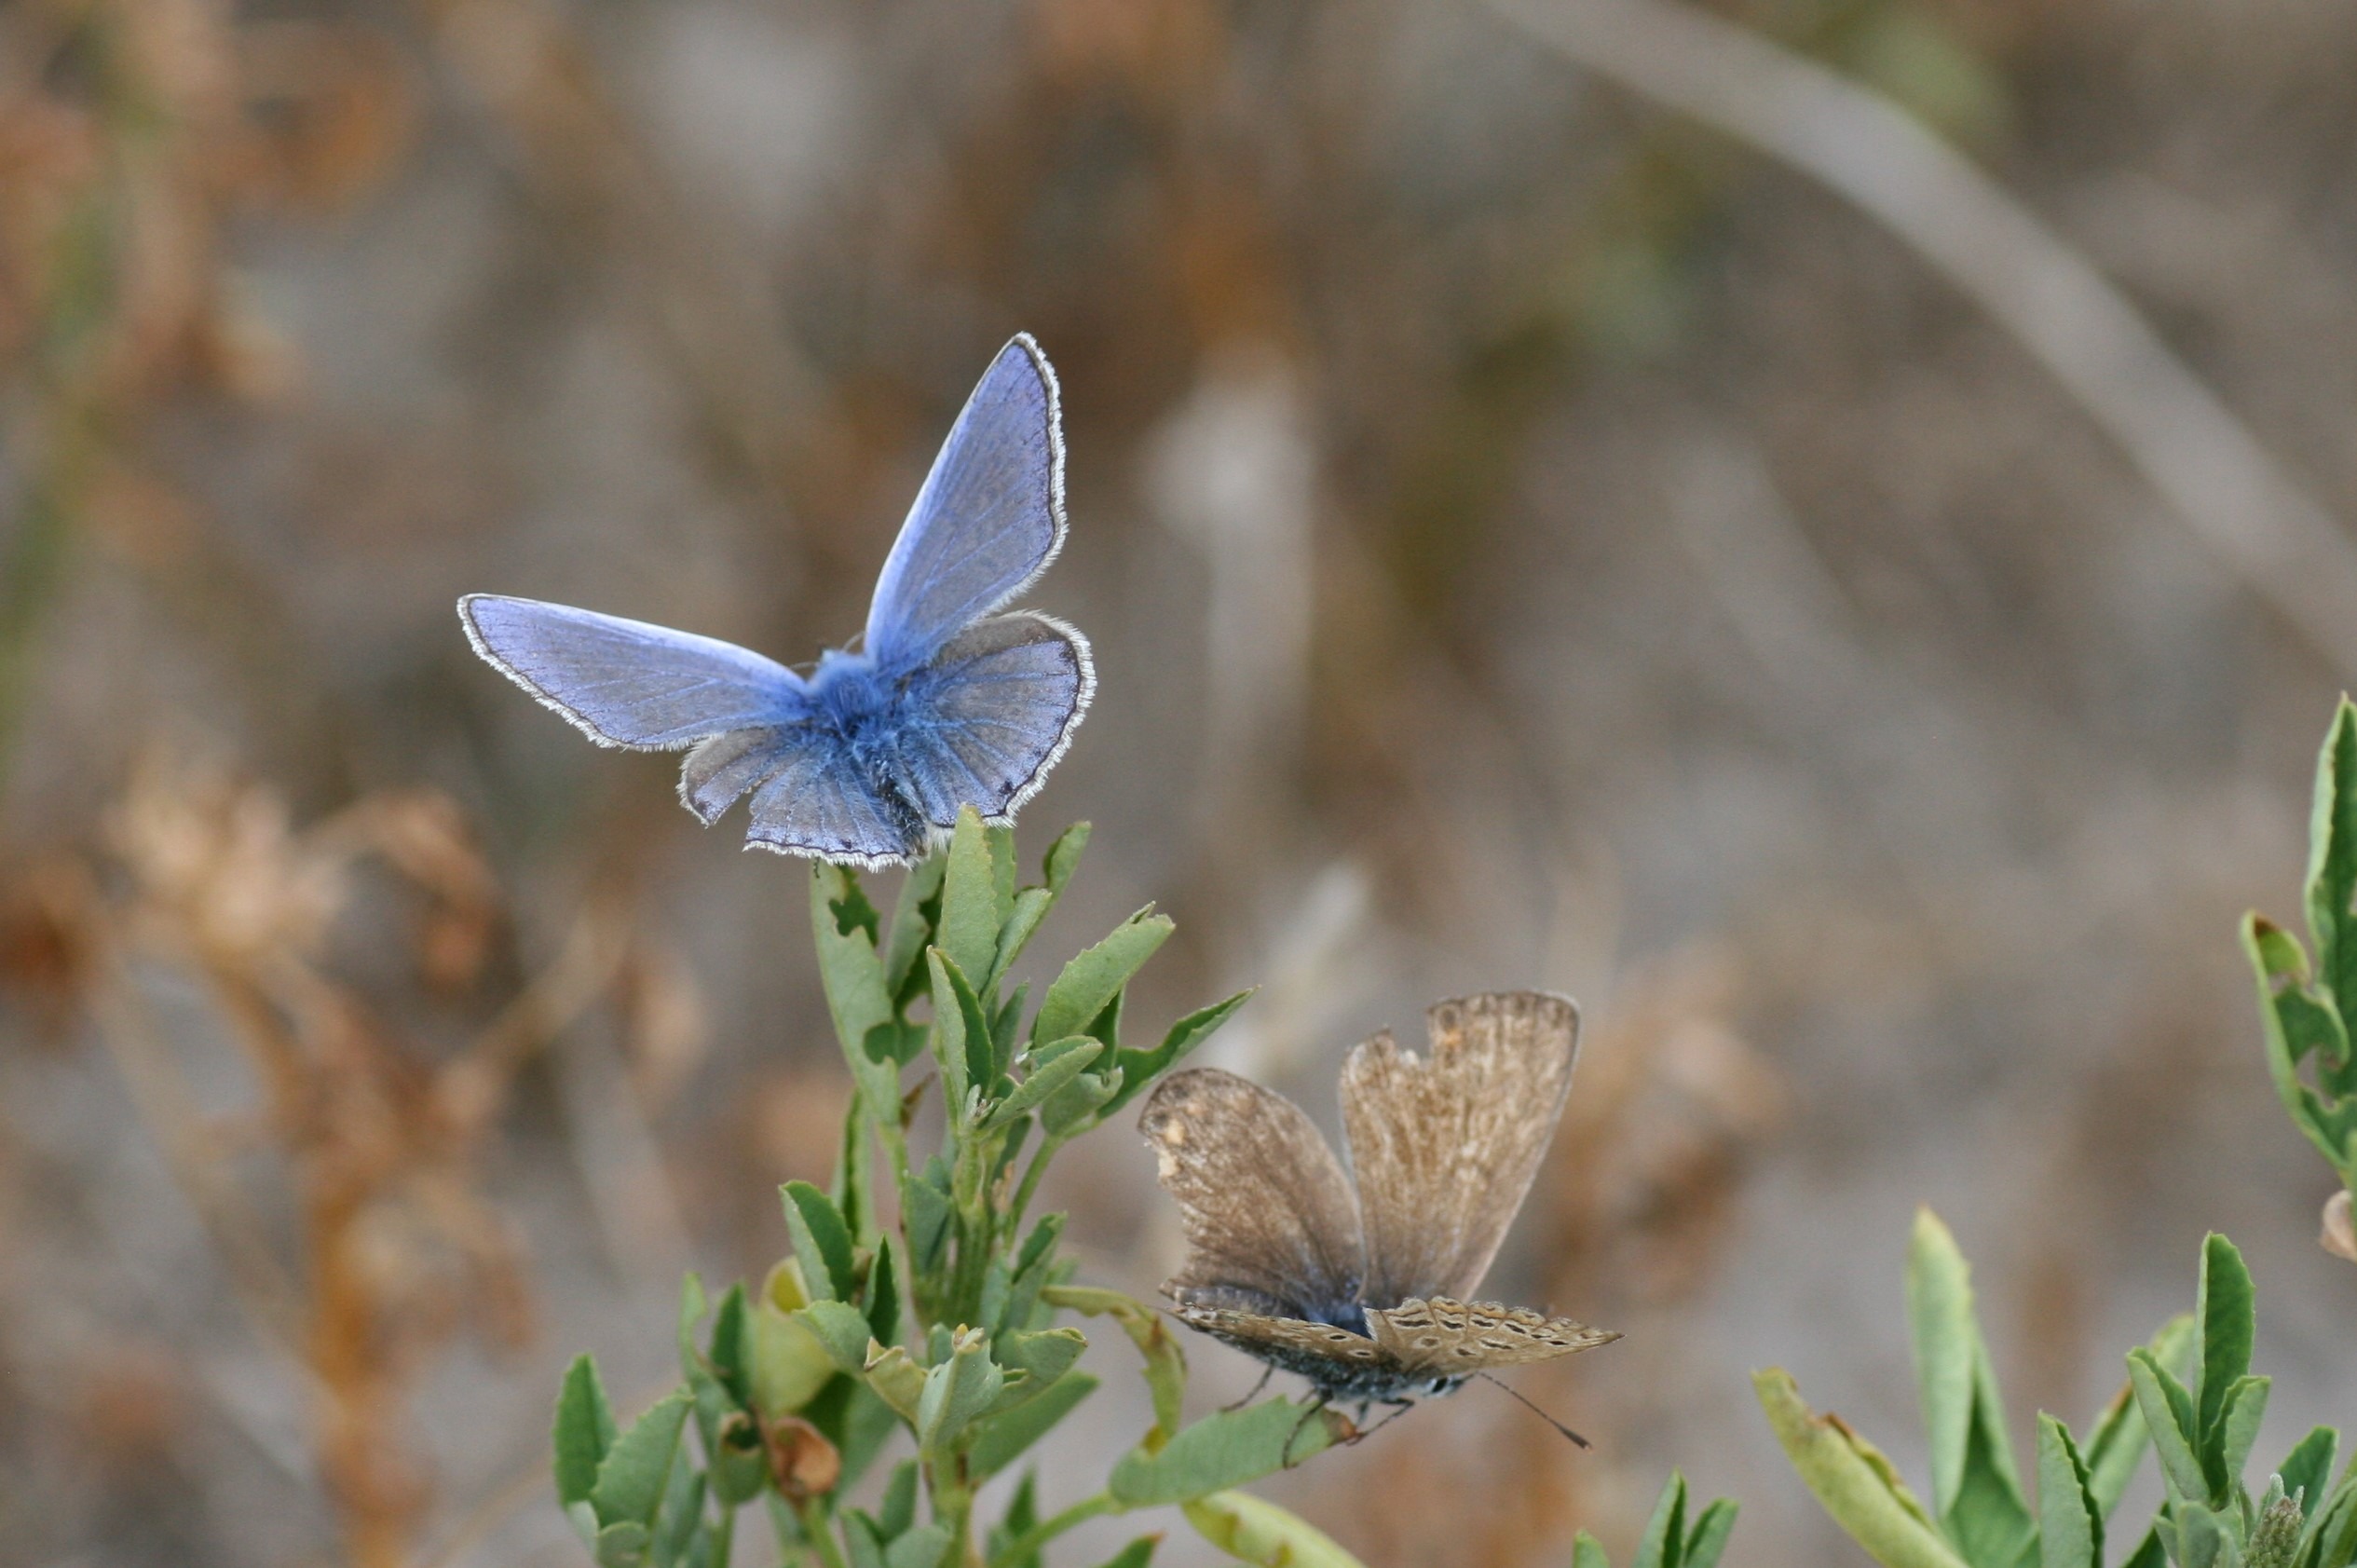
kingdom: Animalia
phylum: Arthropoda
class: Insecta
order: Lepidoptera
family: Lycaenidae
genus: Polyommatus
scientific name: Polyommatus icarus
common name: Almindelig blåfugl
